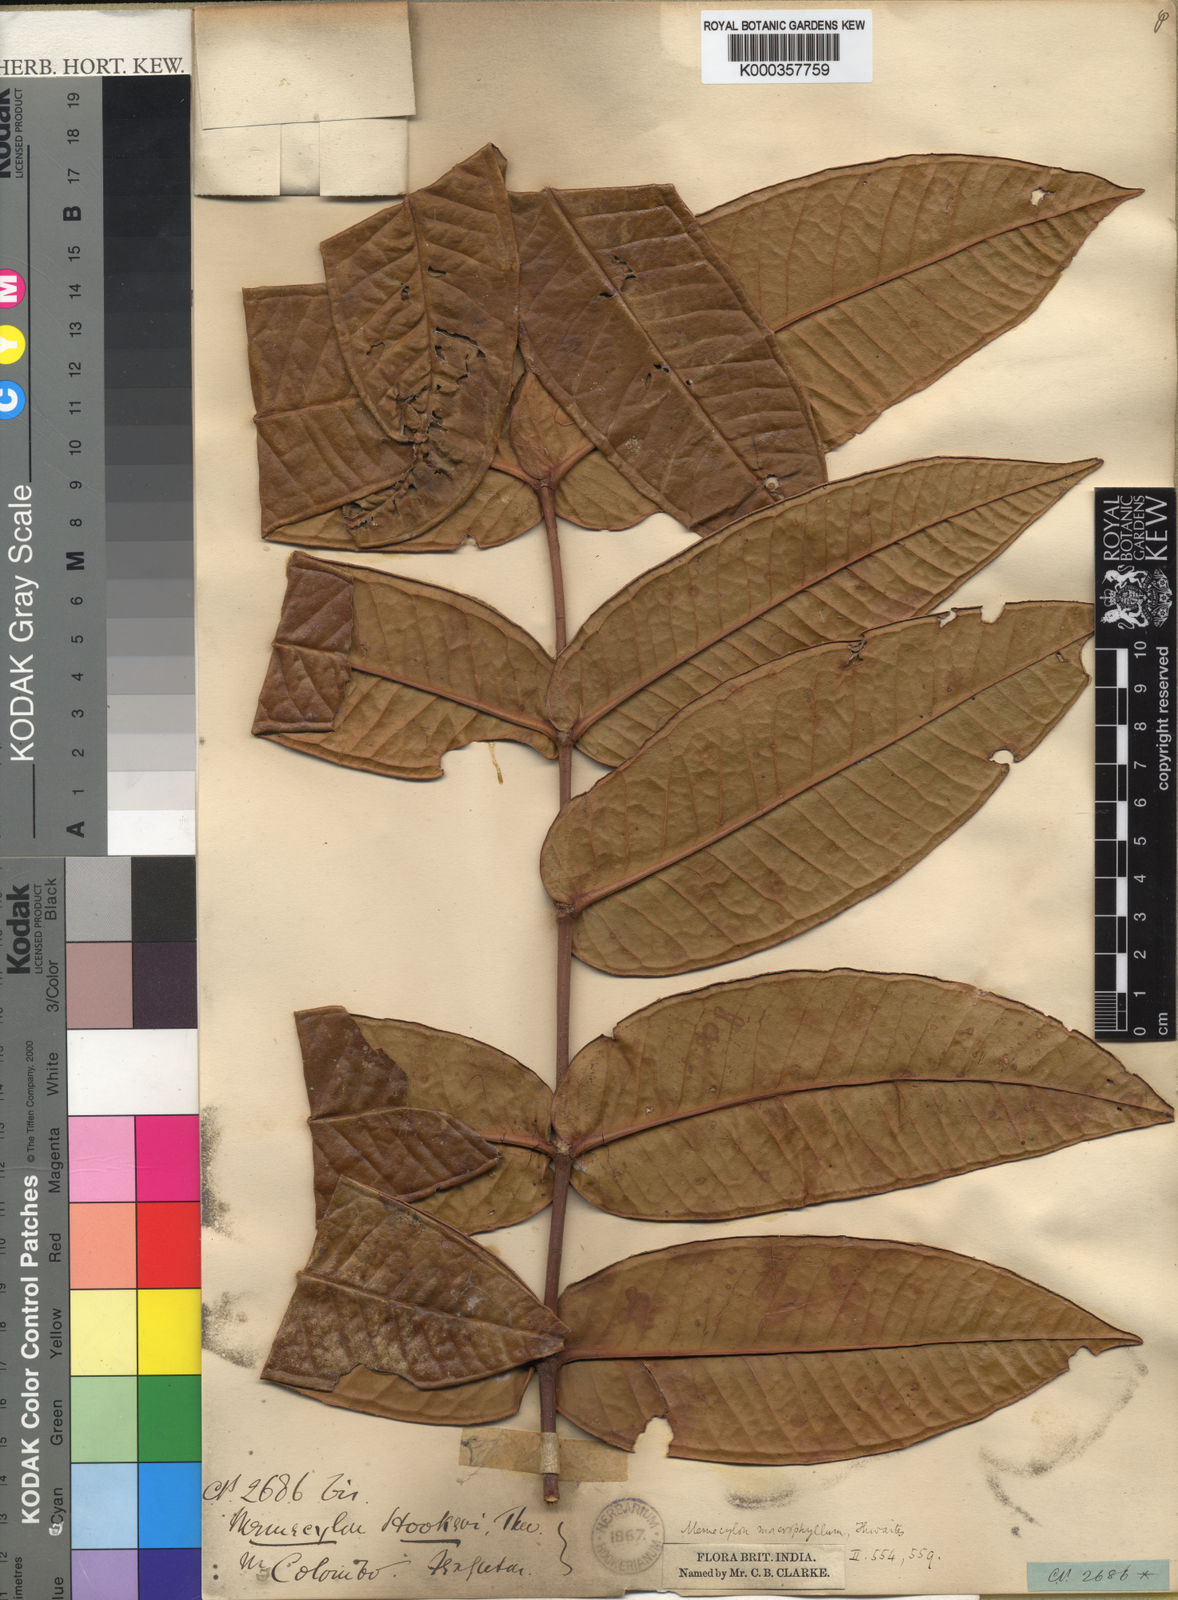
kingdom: Plantae
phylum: Tracheophyta
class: Magnoliopsida
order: Myrtales
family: Melastomataceae
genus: Memecylon
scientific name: Memecylon hookeri
